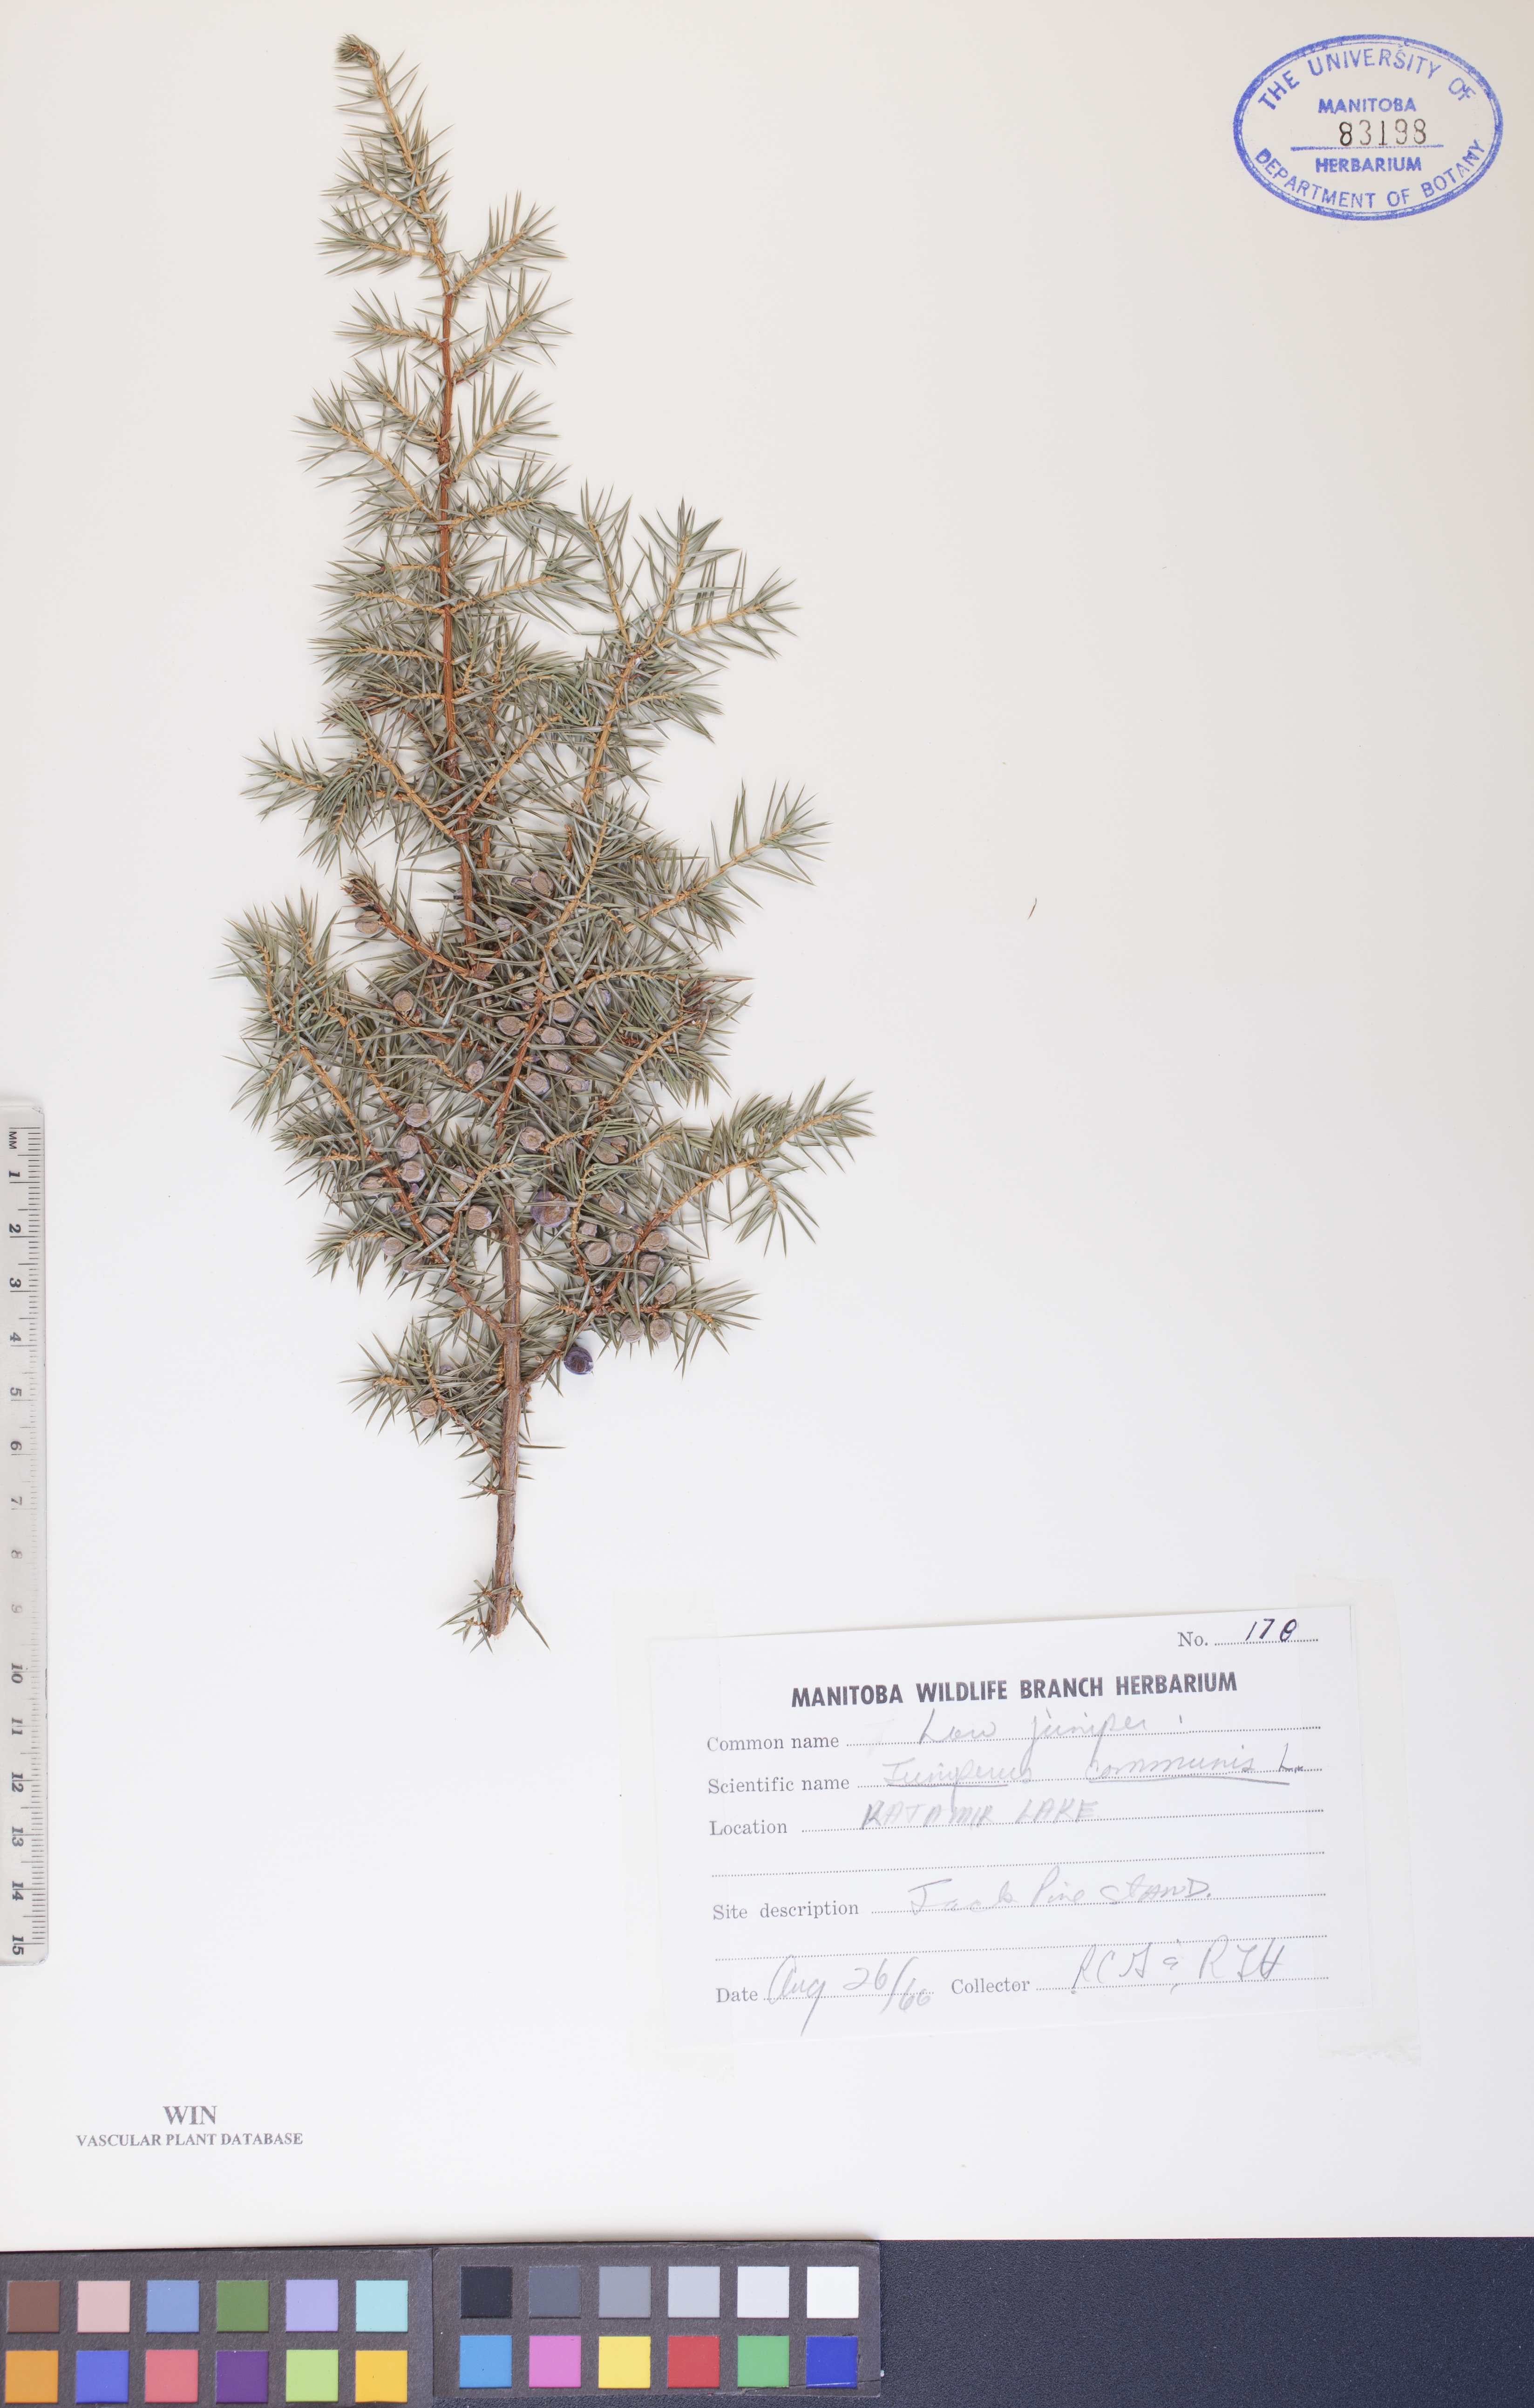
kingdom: Plantae
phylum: Tracheophyta
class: Pinopsida
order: Pinales
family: Cupressaceae
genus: Juniperus
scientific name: Juniperus communis
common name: Common juniper
